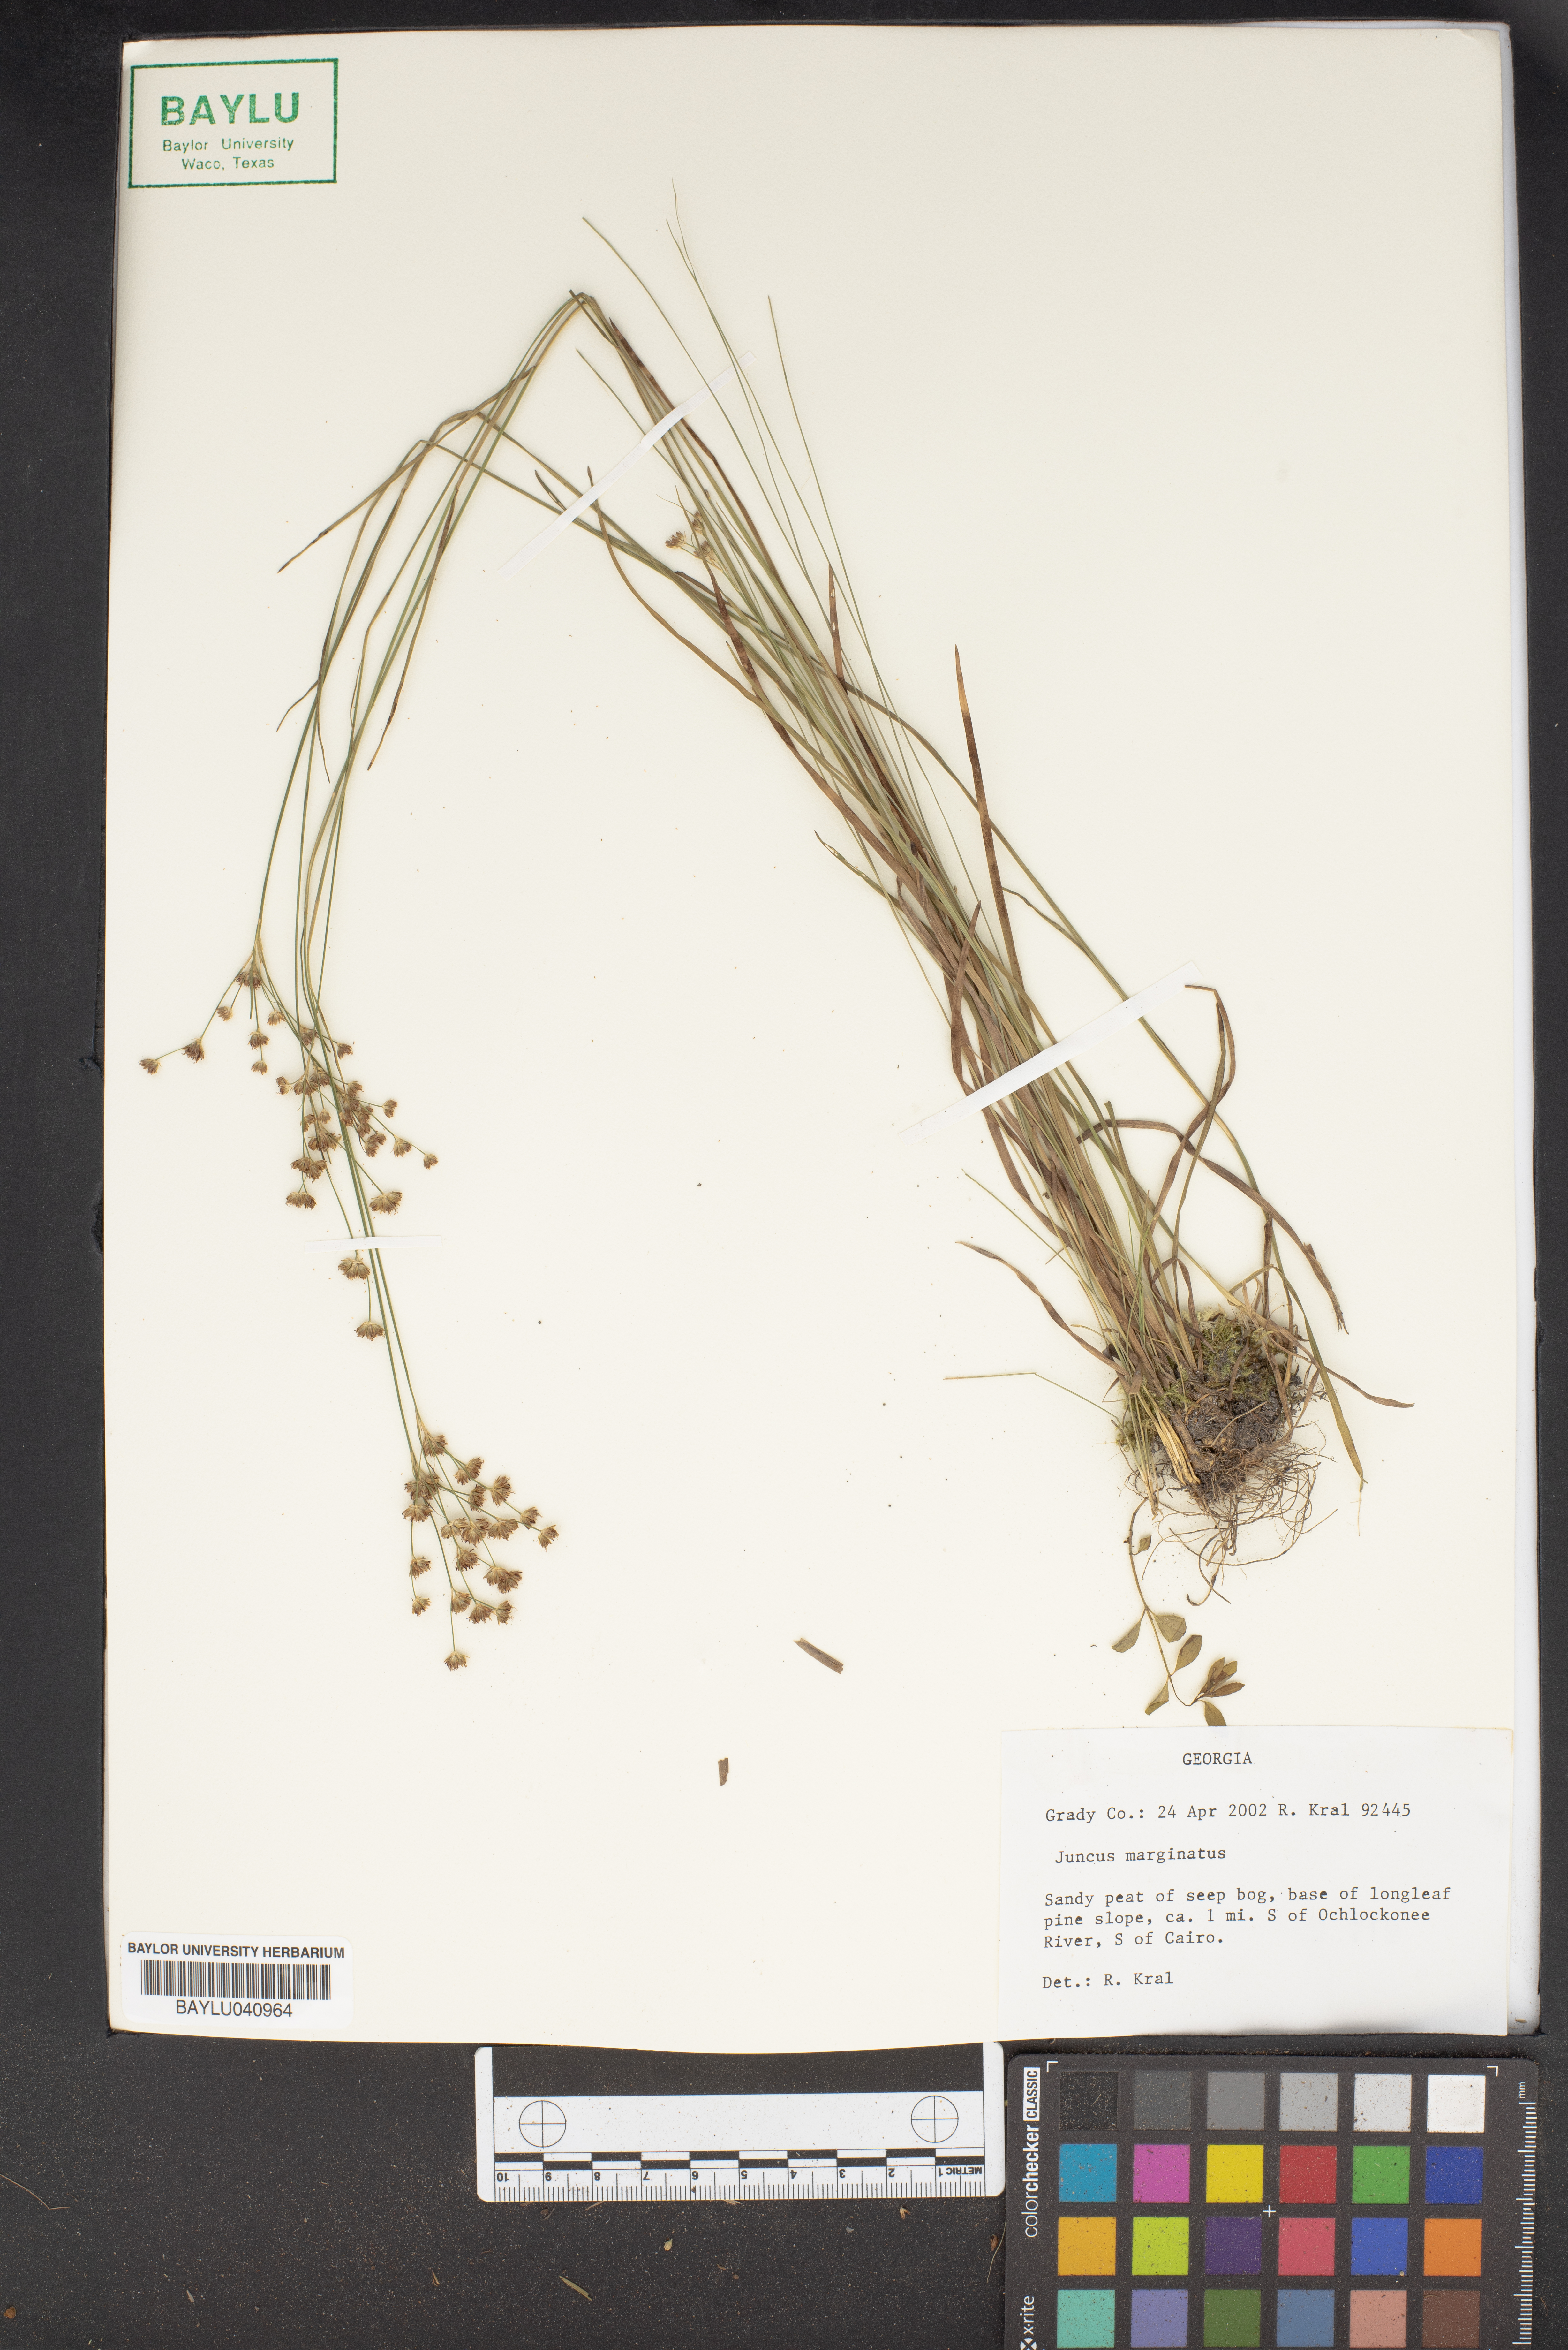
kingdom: Plantae
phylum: Tracheophyta
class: Liliopsida
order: Poales
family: Juncaceae
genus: Juncus
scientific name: Juncus marginatus
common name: Grass-leaf rush
